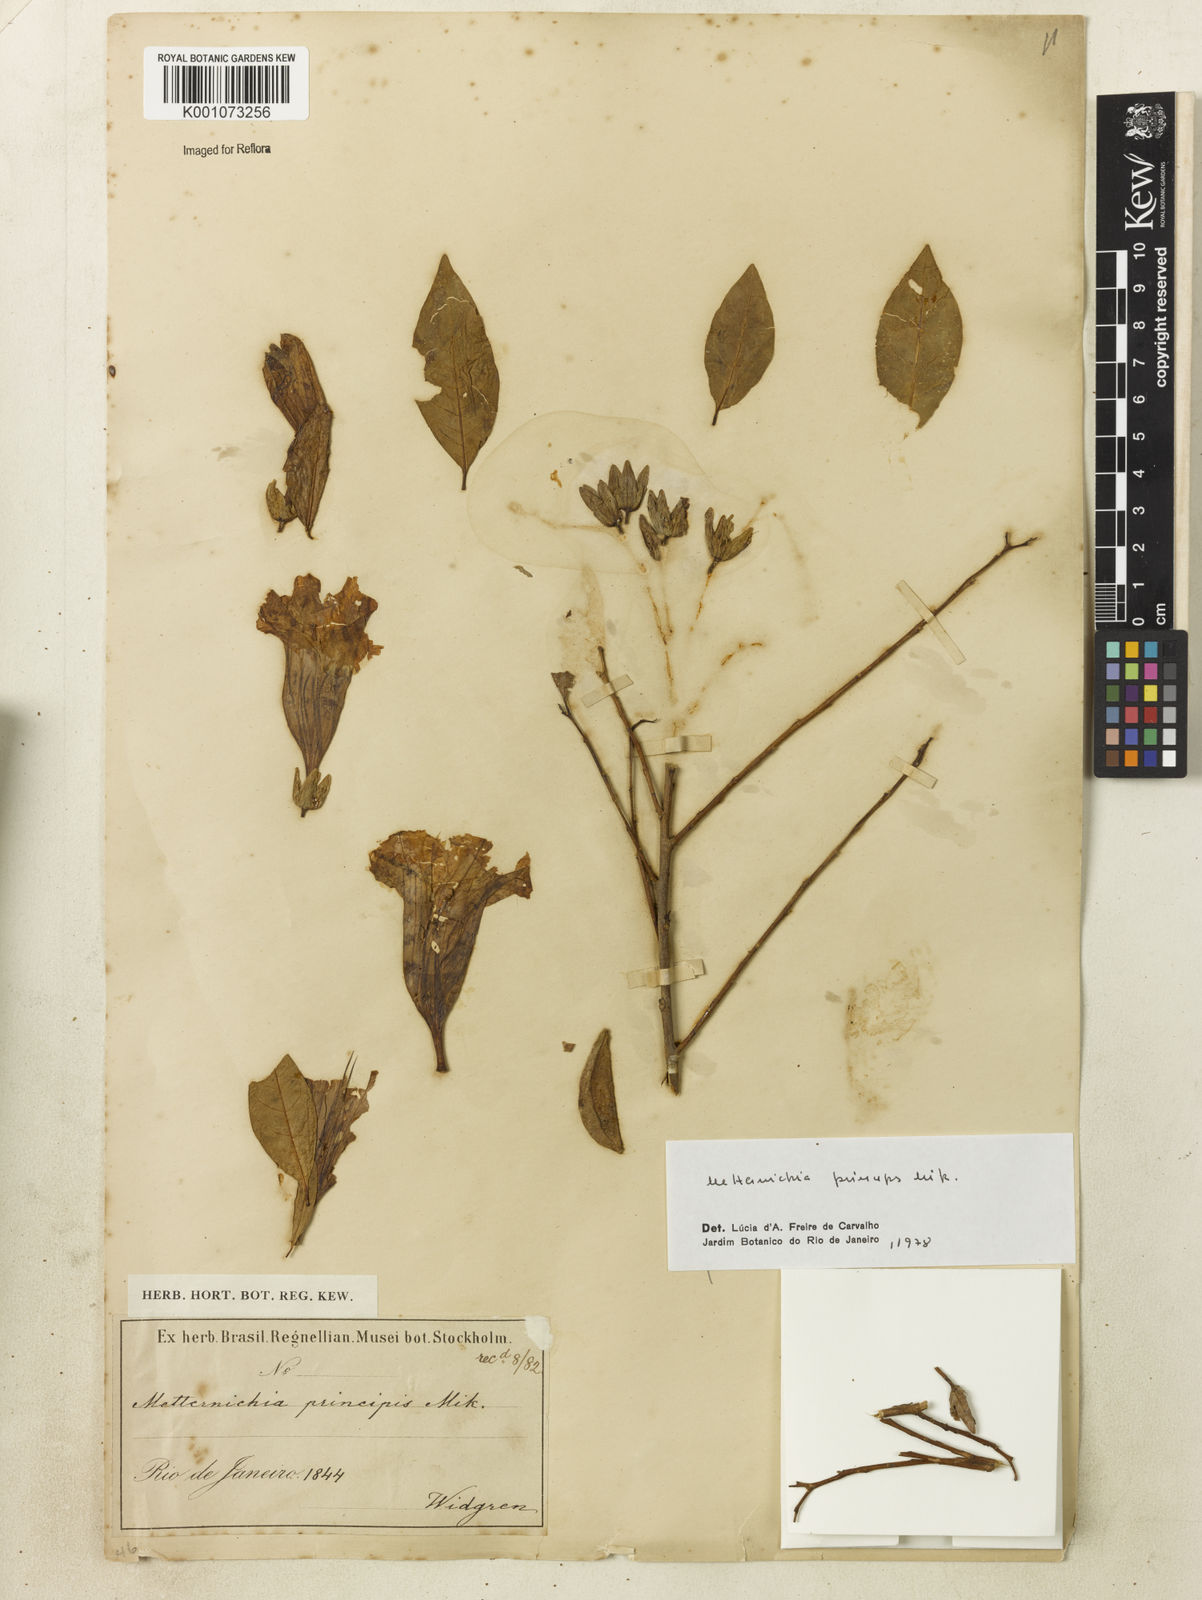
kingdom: Plantae
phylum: Tracheophyta
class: Magnoliopsida
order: Solanales
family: Solanaceae
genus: Metternichia
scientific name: Metternichia
